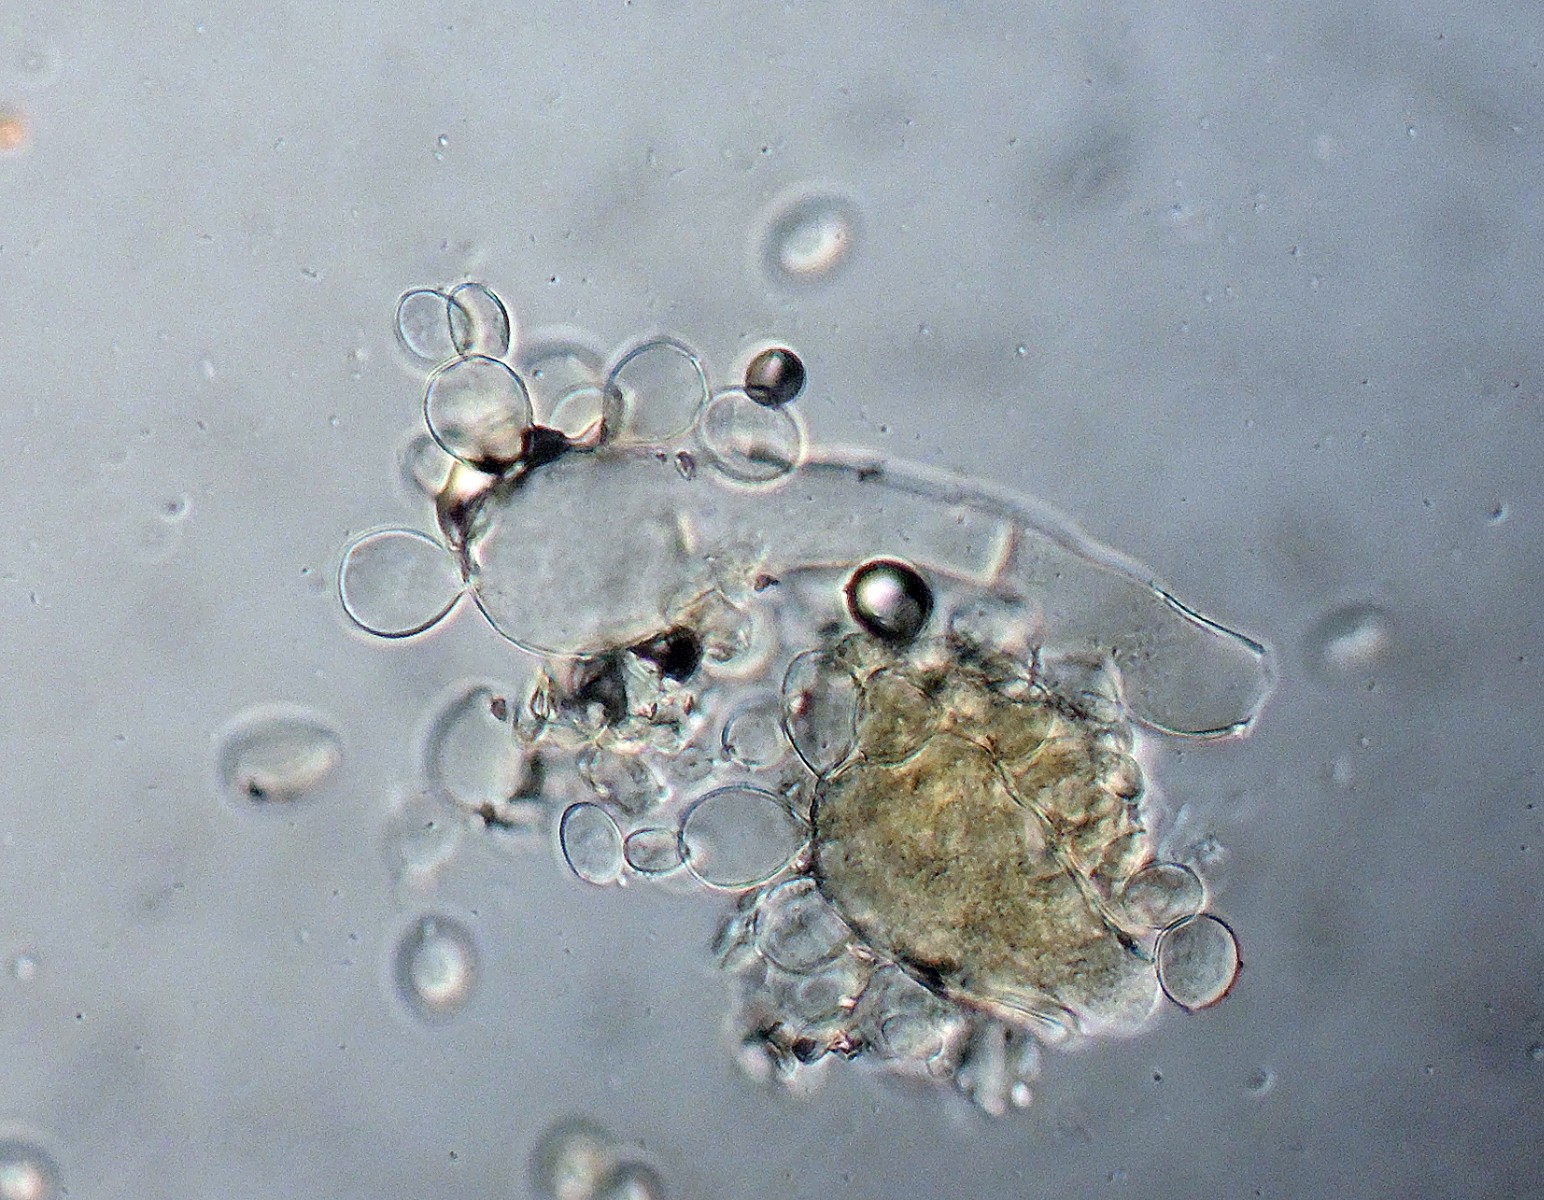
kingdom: Fungi
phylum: Ascomycota
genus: Nematogonum
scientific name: Nematogonum ferrugineum
